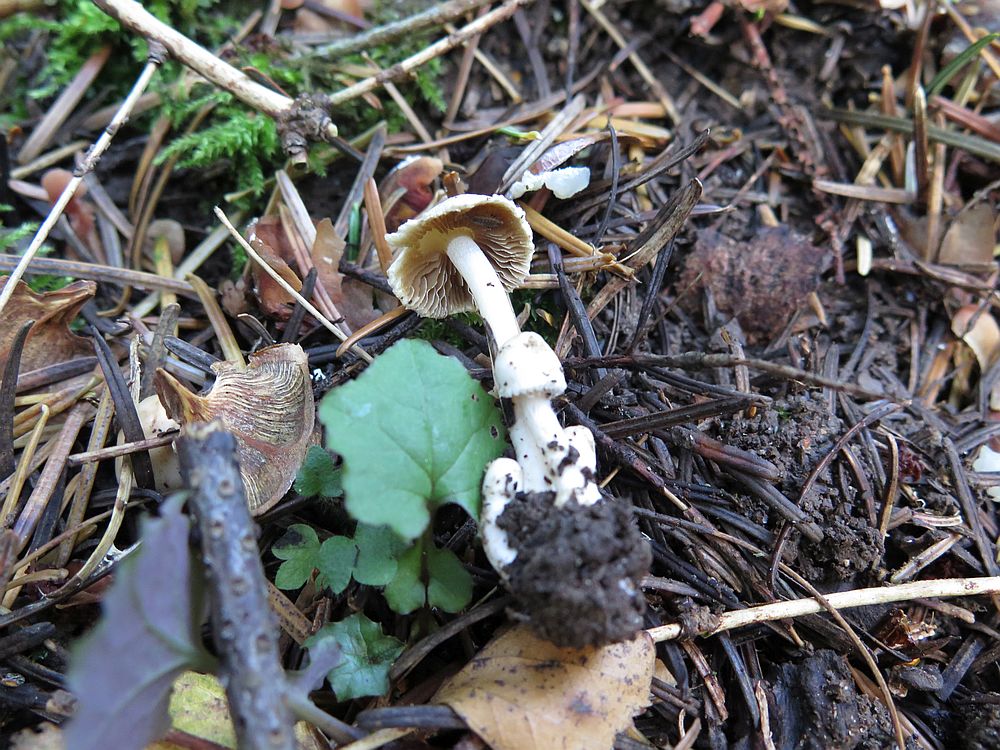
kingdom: Fungi
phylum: Basidiomycota
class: Agaricomycetes
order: Agaricales
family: Inocybaceae
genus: Inocybe
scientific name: Inocybe
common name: almindelig trævlhat
